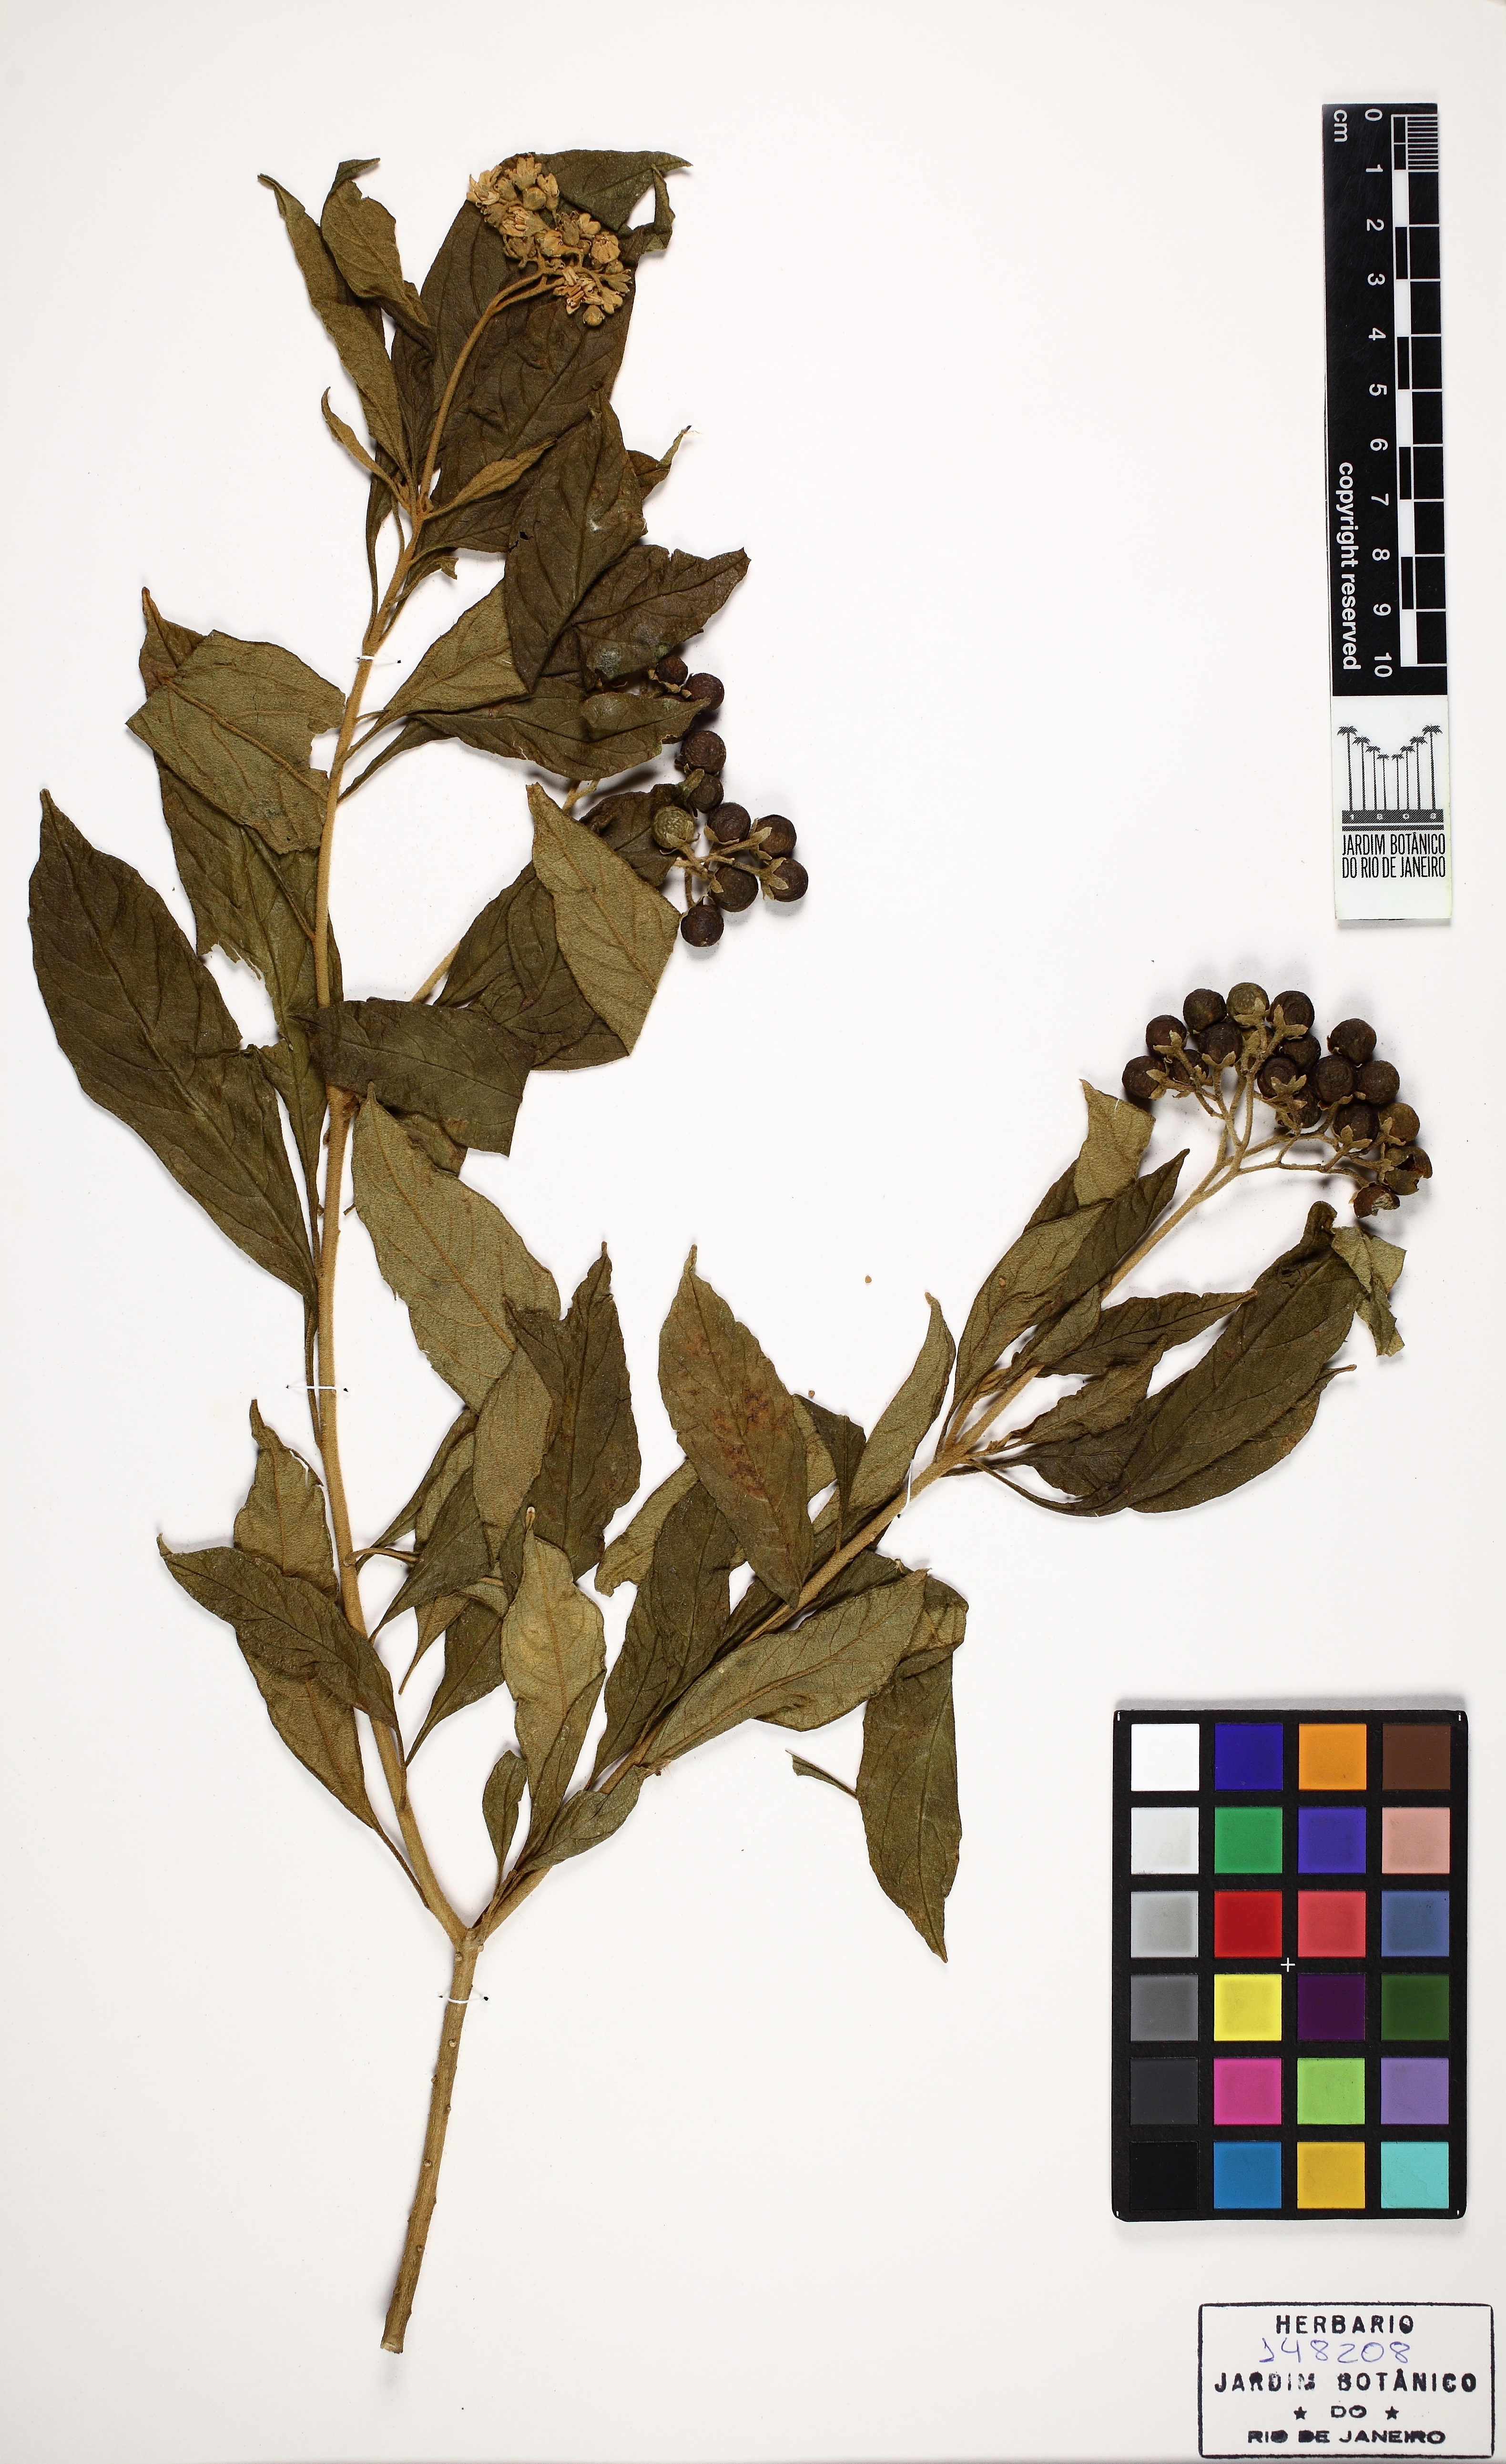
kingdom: Plantae
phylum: Tracheophyta
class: Magnoliopsida
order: Solanales
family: Solanaceae
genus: Solanum
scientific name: Solanum asperum
